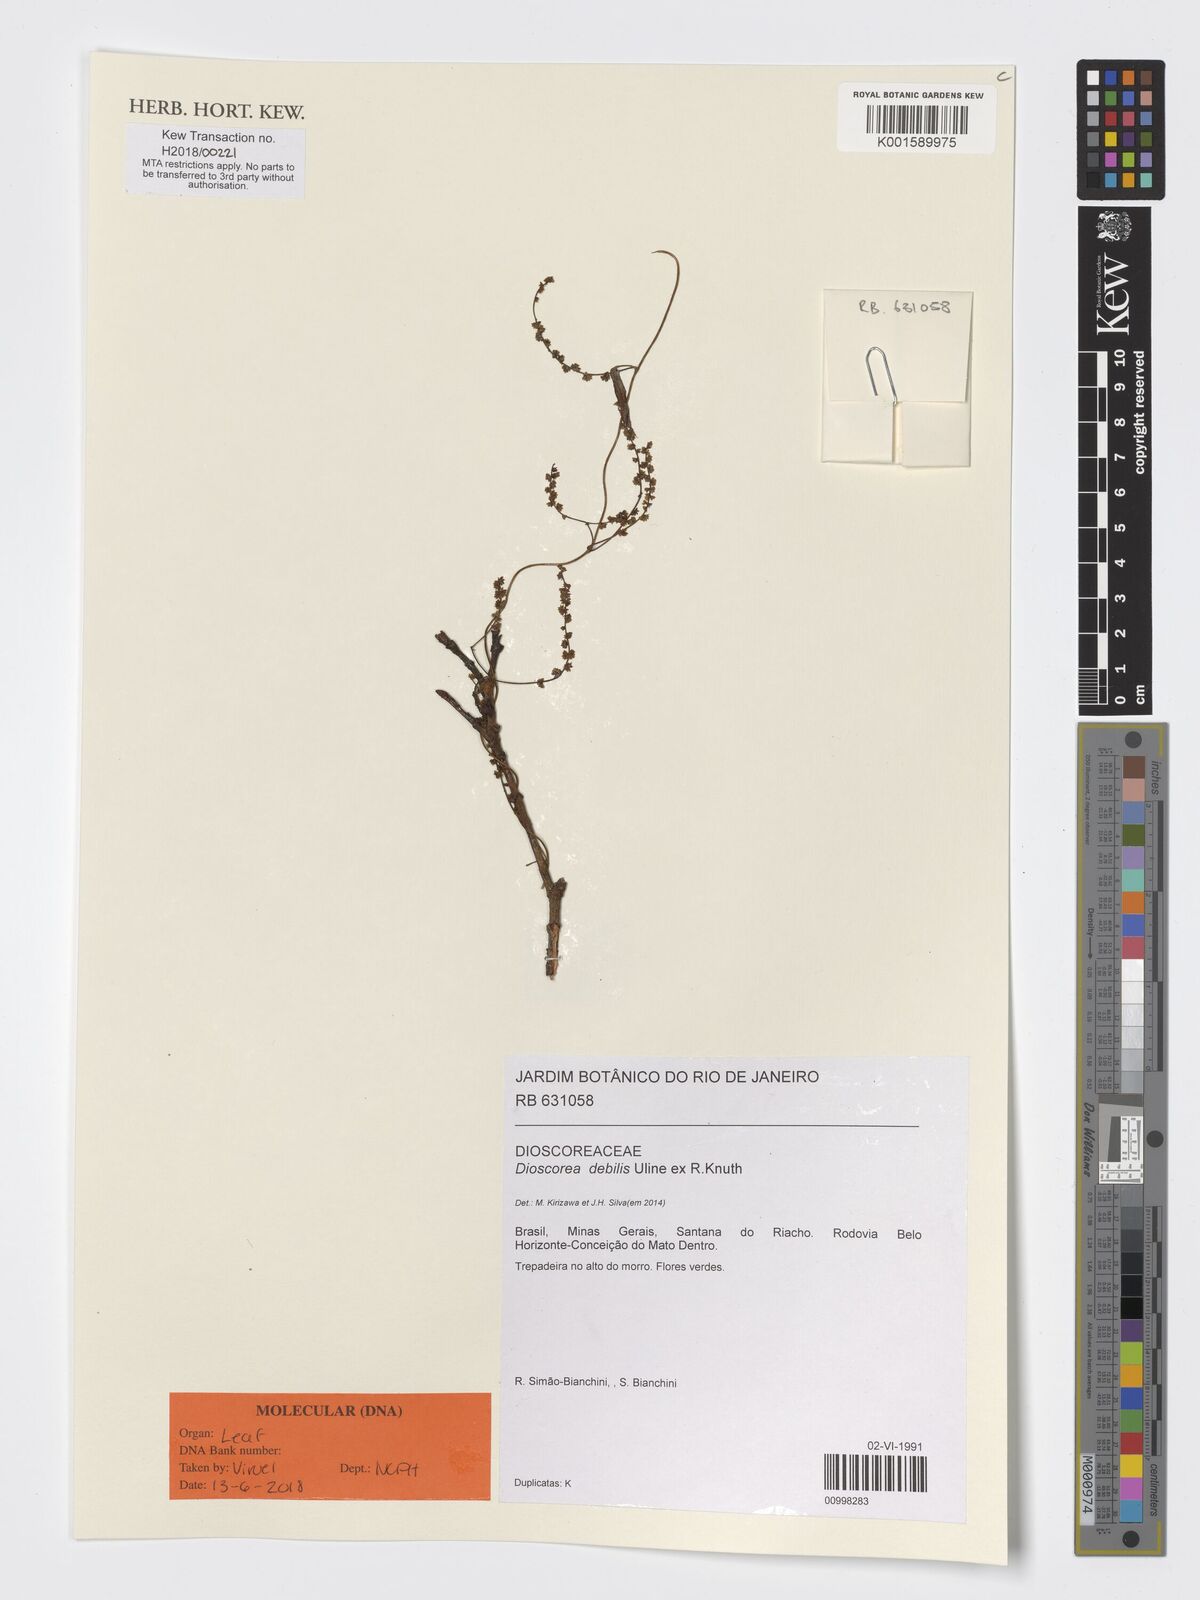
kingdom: Plantae
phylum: Tracheophyta
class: Liliopsida
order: Dioscoreales
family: Dioscoreaceae
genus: Dioscorea
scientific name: Dioscorea debilis
